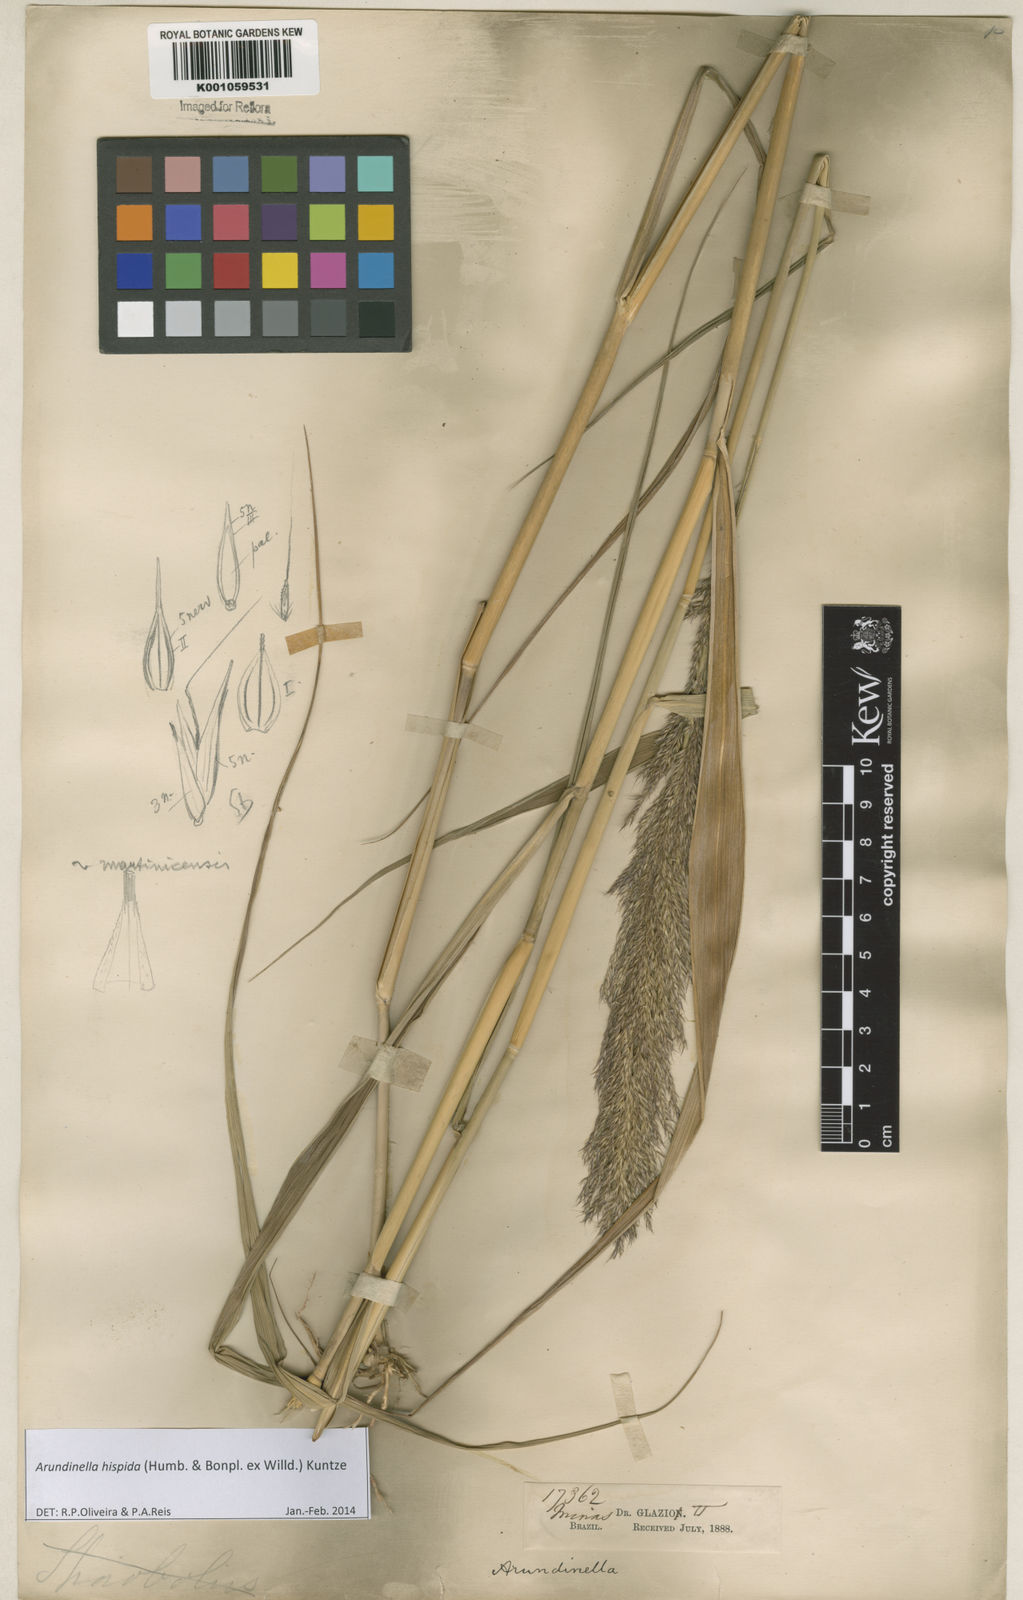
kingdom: Plantae
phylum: Tracheophyta
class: Liliopsida
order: Poales
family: Poaceae
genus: Arundinella
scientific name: Arundinella hispida
